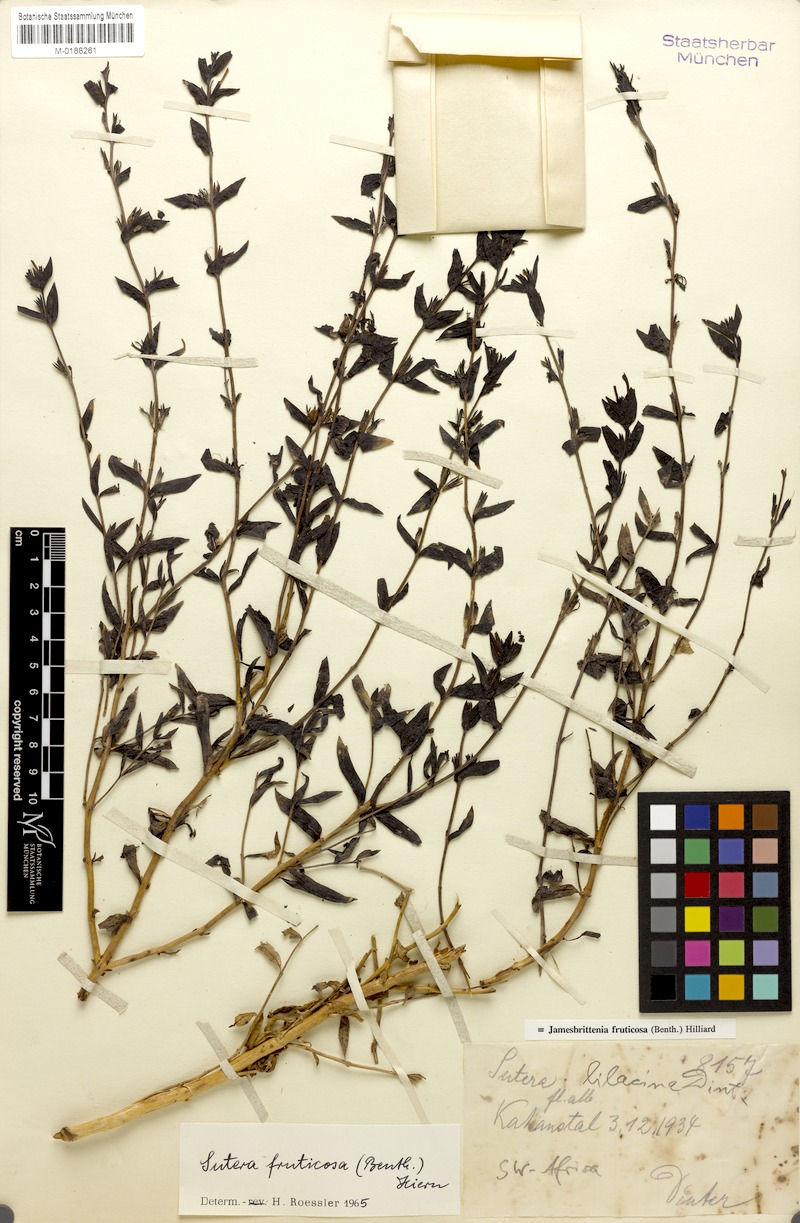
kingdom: Plantae
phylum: Tracheophyta
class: Magnoliopsida
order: Lamiales
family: Scrophulariaceae
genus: Jamesbrittenia
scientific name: Jamesbrittenia fruticosa
